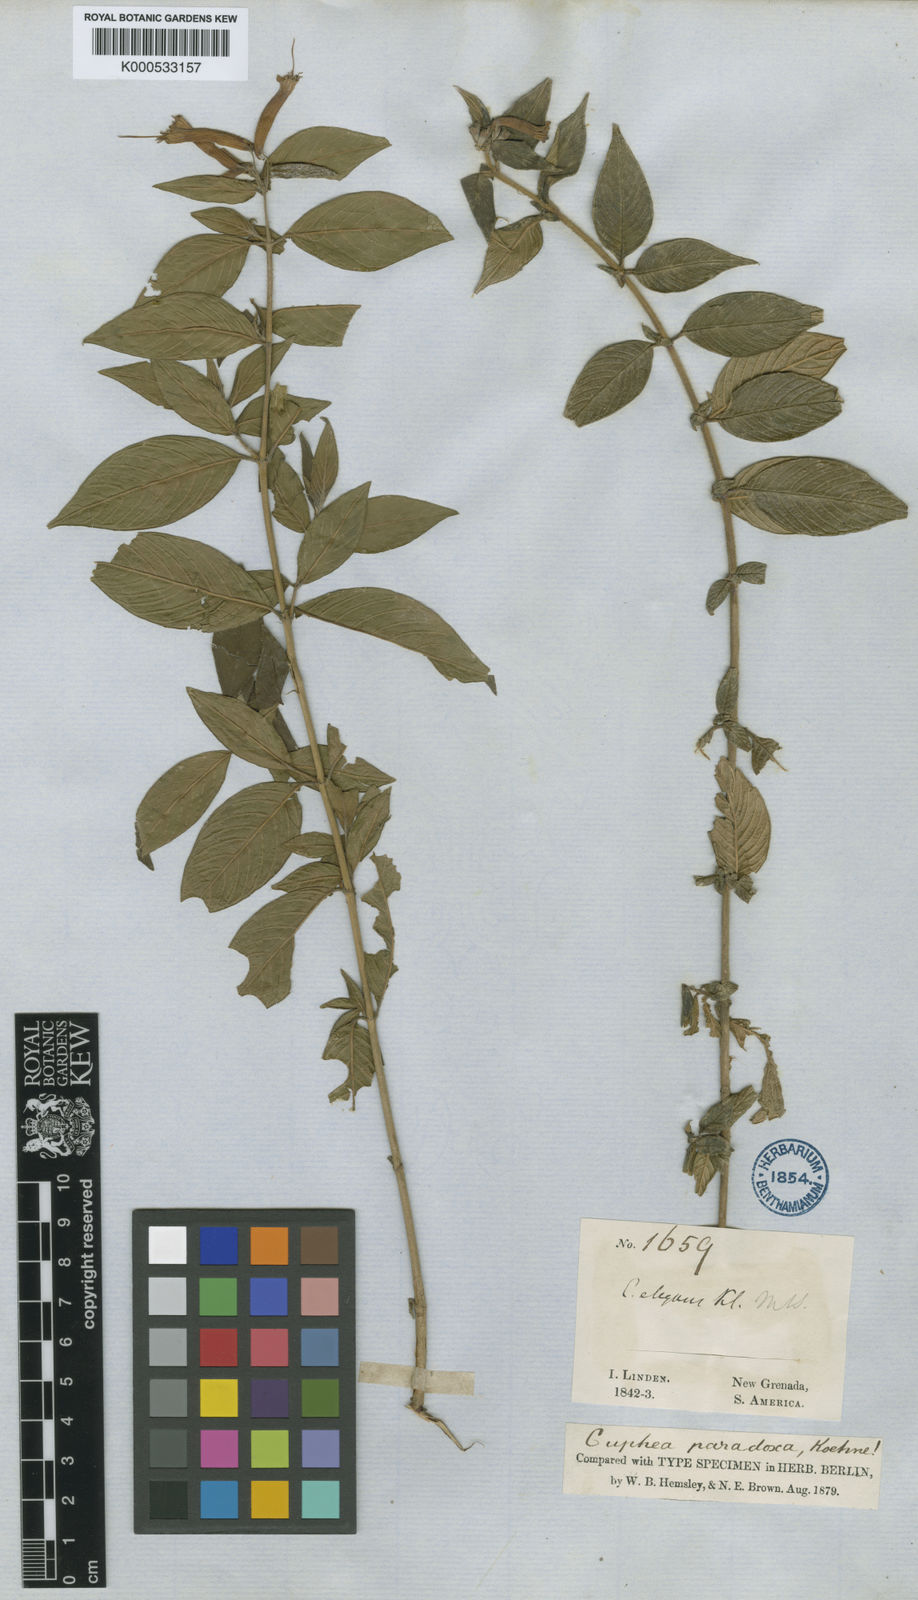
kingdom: Plantae
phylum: Tracheophyta
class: Magnoliopsida
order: Myrtales
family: Lythraceae
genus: Cuphea
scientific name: Cuphea paradoxa
